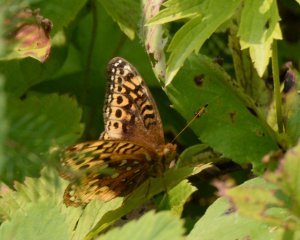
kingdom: Animalia
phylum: Arthropoda
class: Insecta
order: Lepidoptera
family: Nymphalidae
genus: Speyeria
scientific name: Speyeria cybele
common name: Great Spangled Fritillary
